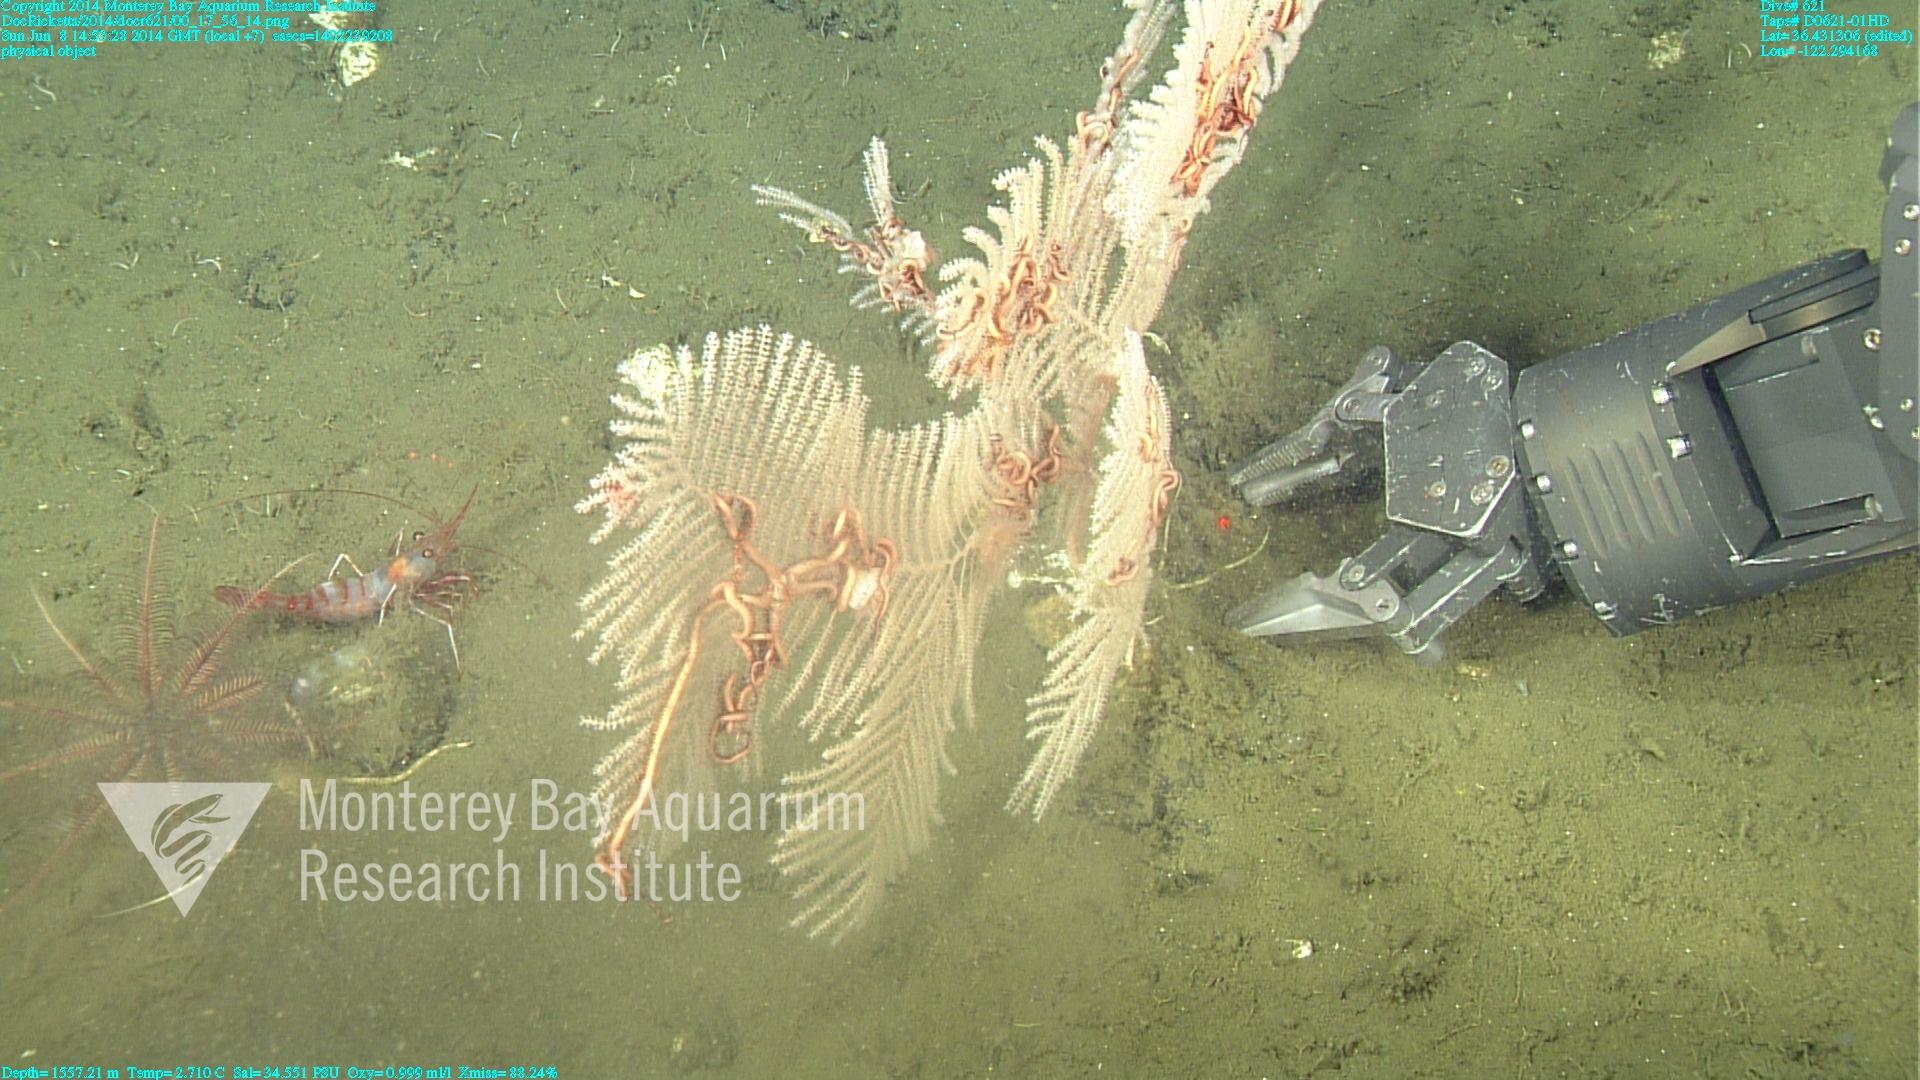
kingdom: Animalia
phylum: Cnidaria
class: Anthozoa
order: Scleralcyonacea
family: Primnoidae
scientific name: Primnoidae
